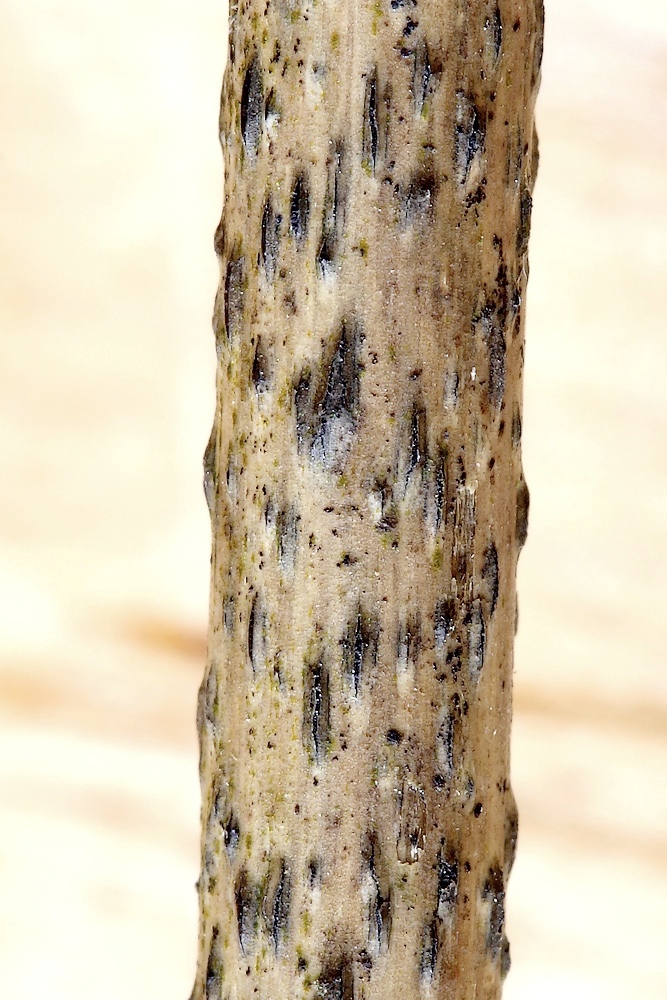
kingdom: Fungi
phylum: Ascomycota
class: Dothideomycetes
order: Dothideales
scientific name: Dothideales
